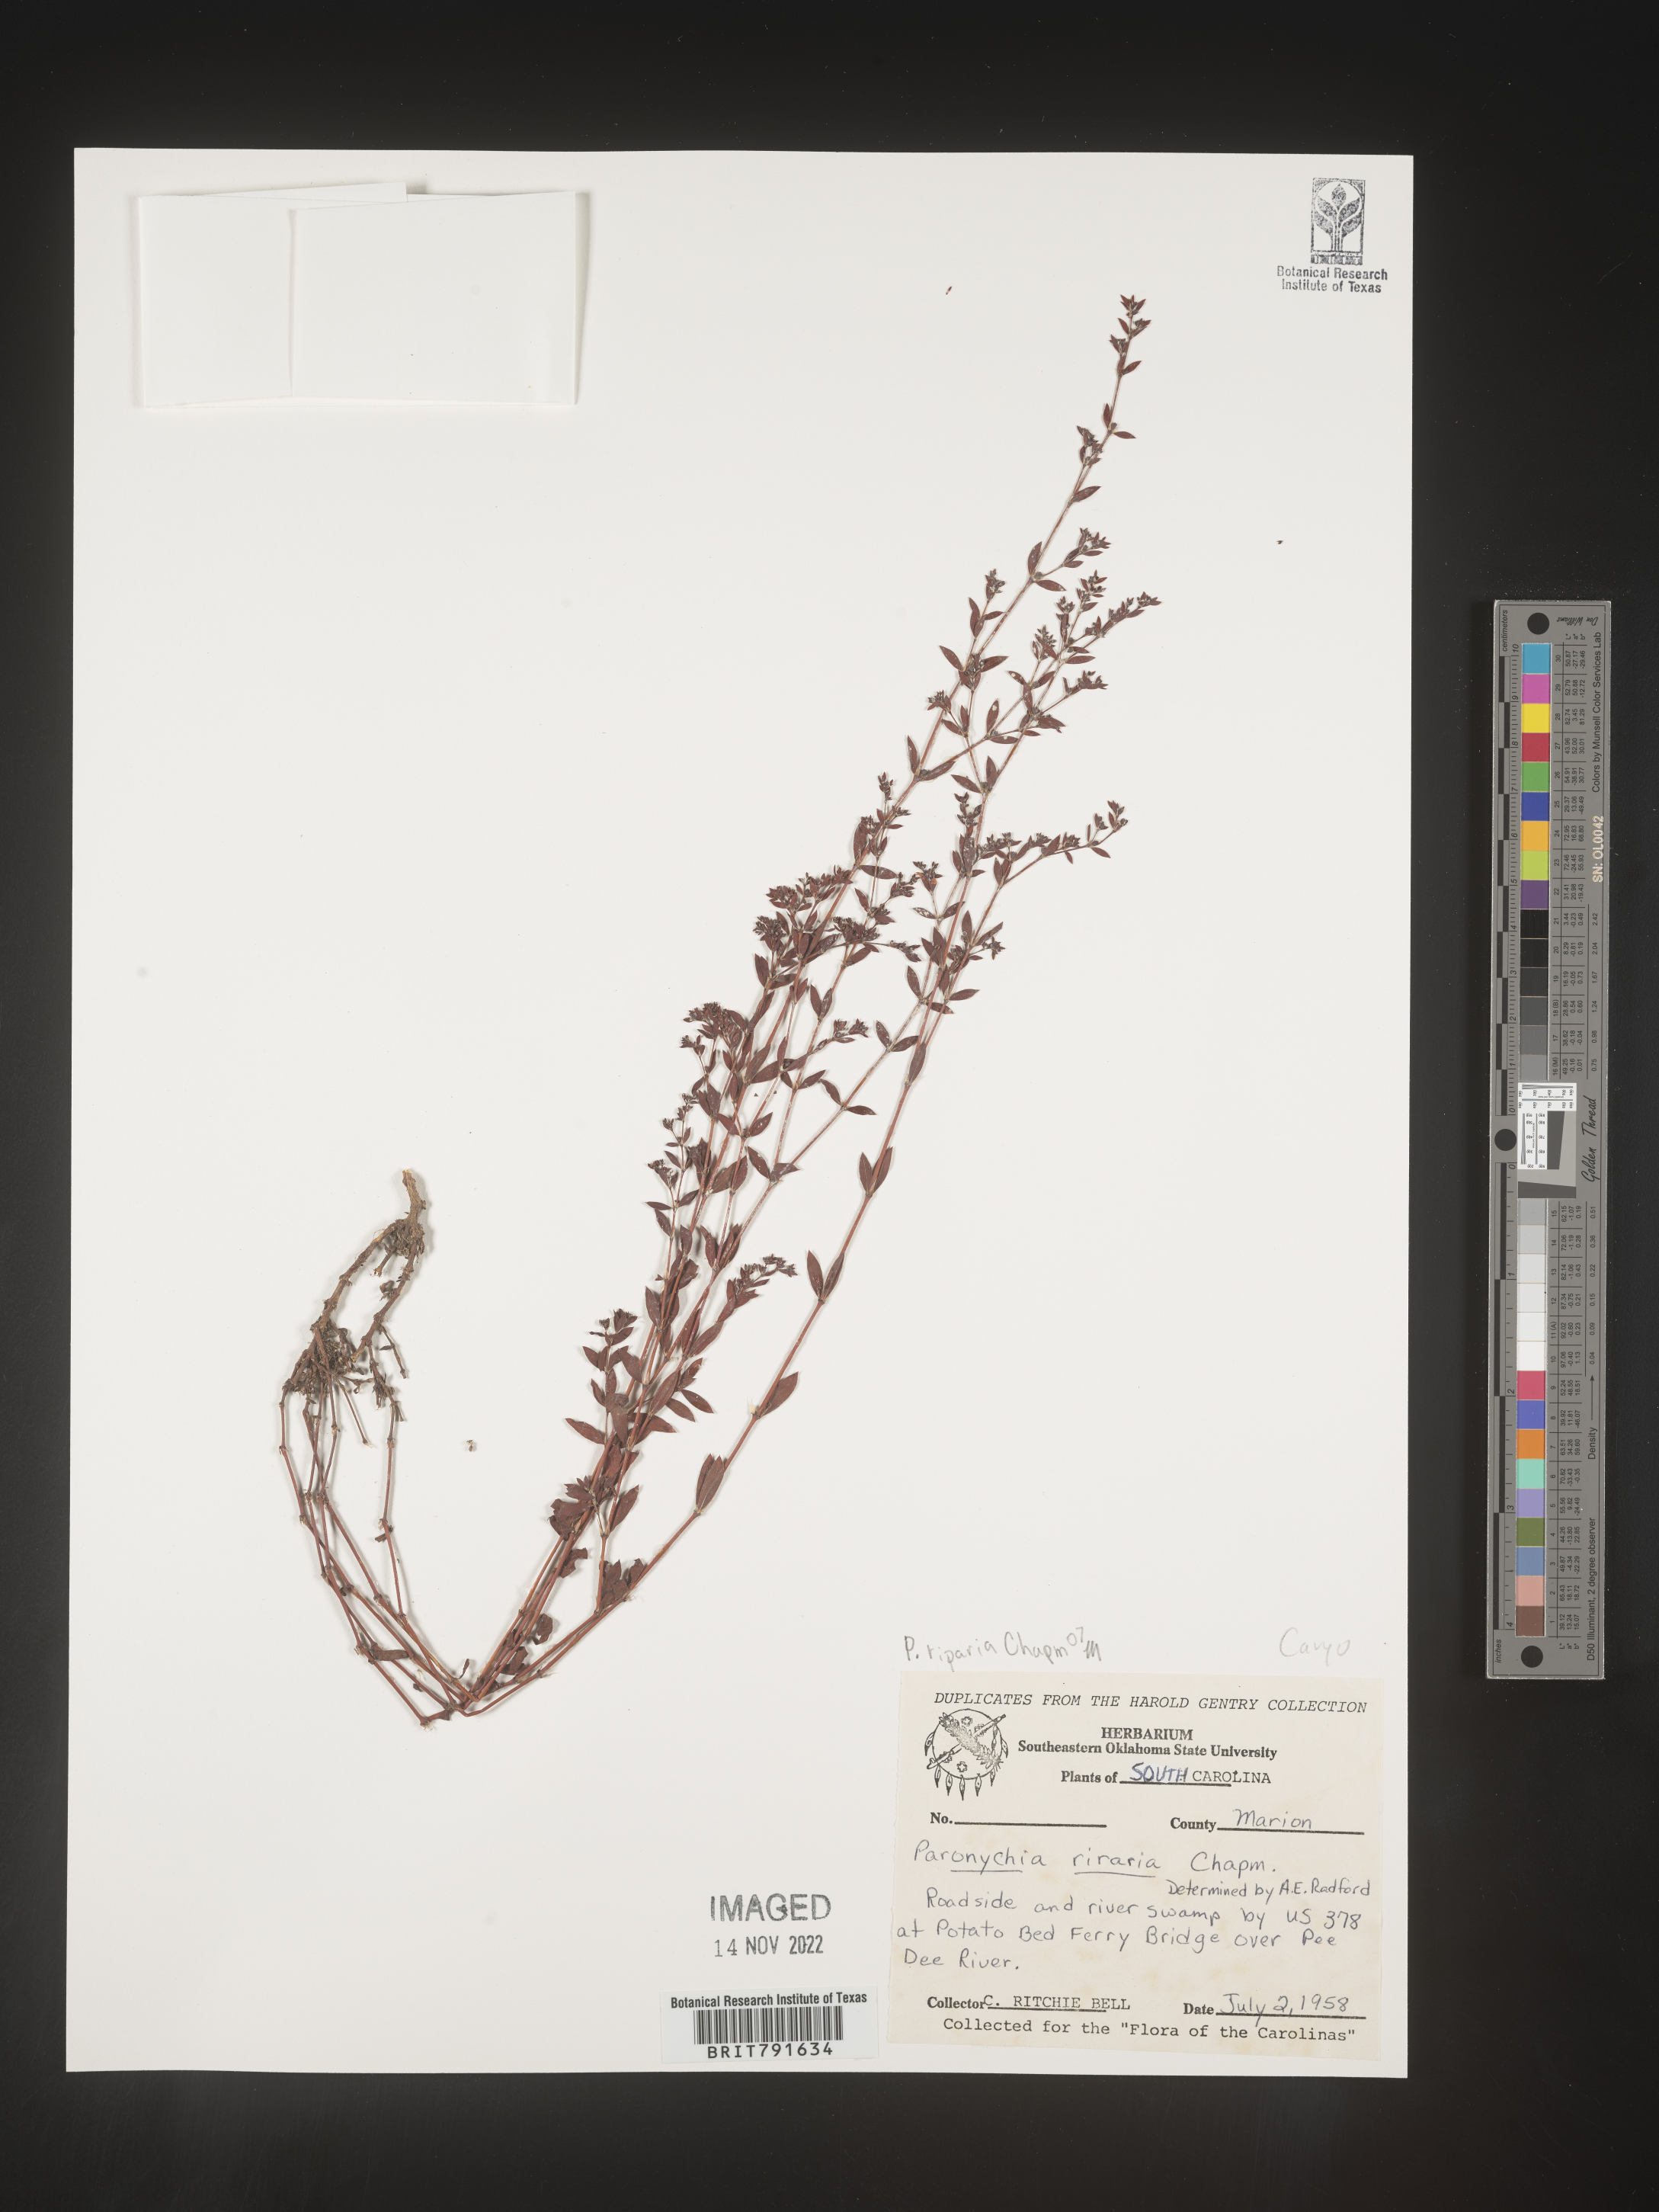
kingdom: Plantae
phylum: Tracheophyta
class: Magnoliopsida
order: Caryophyllales
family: Caryophyllaceae
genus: Paronychia
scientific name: Paronychia baldwinii
